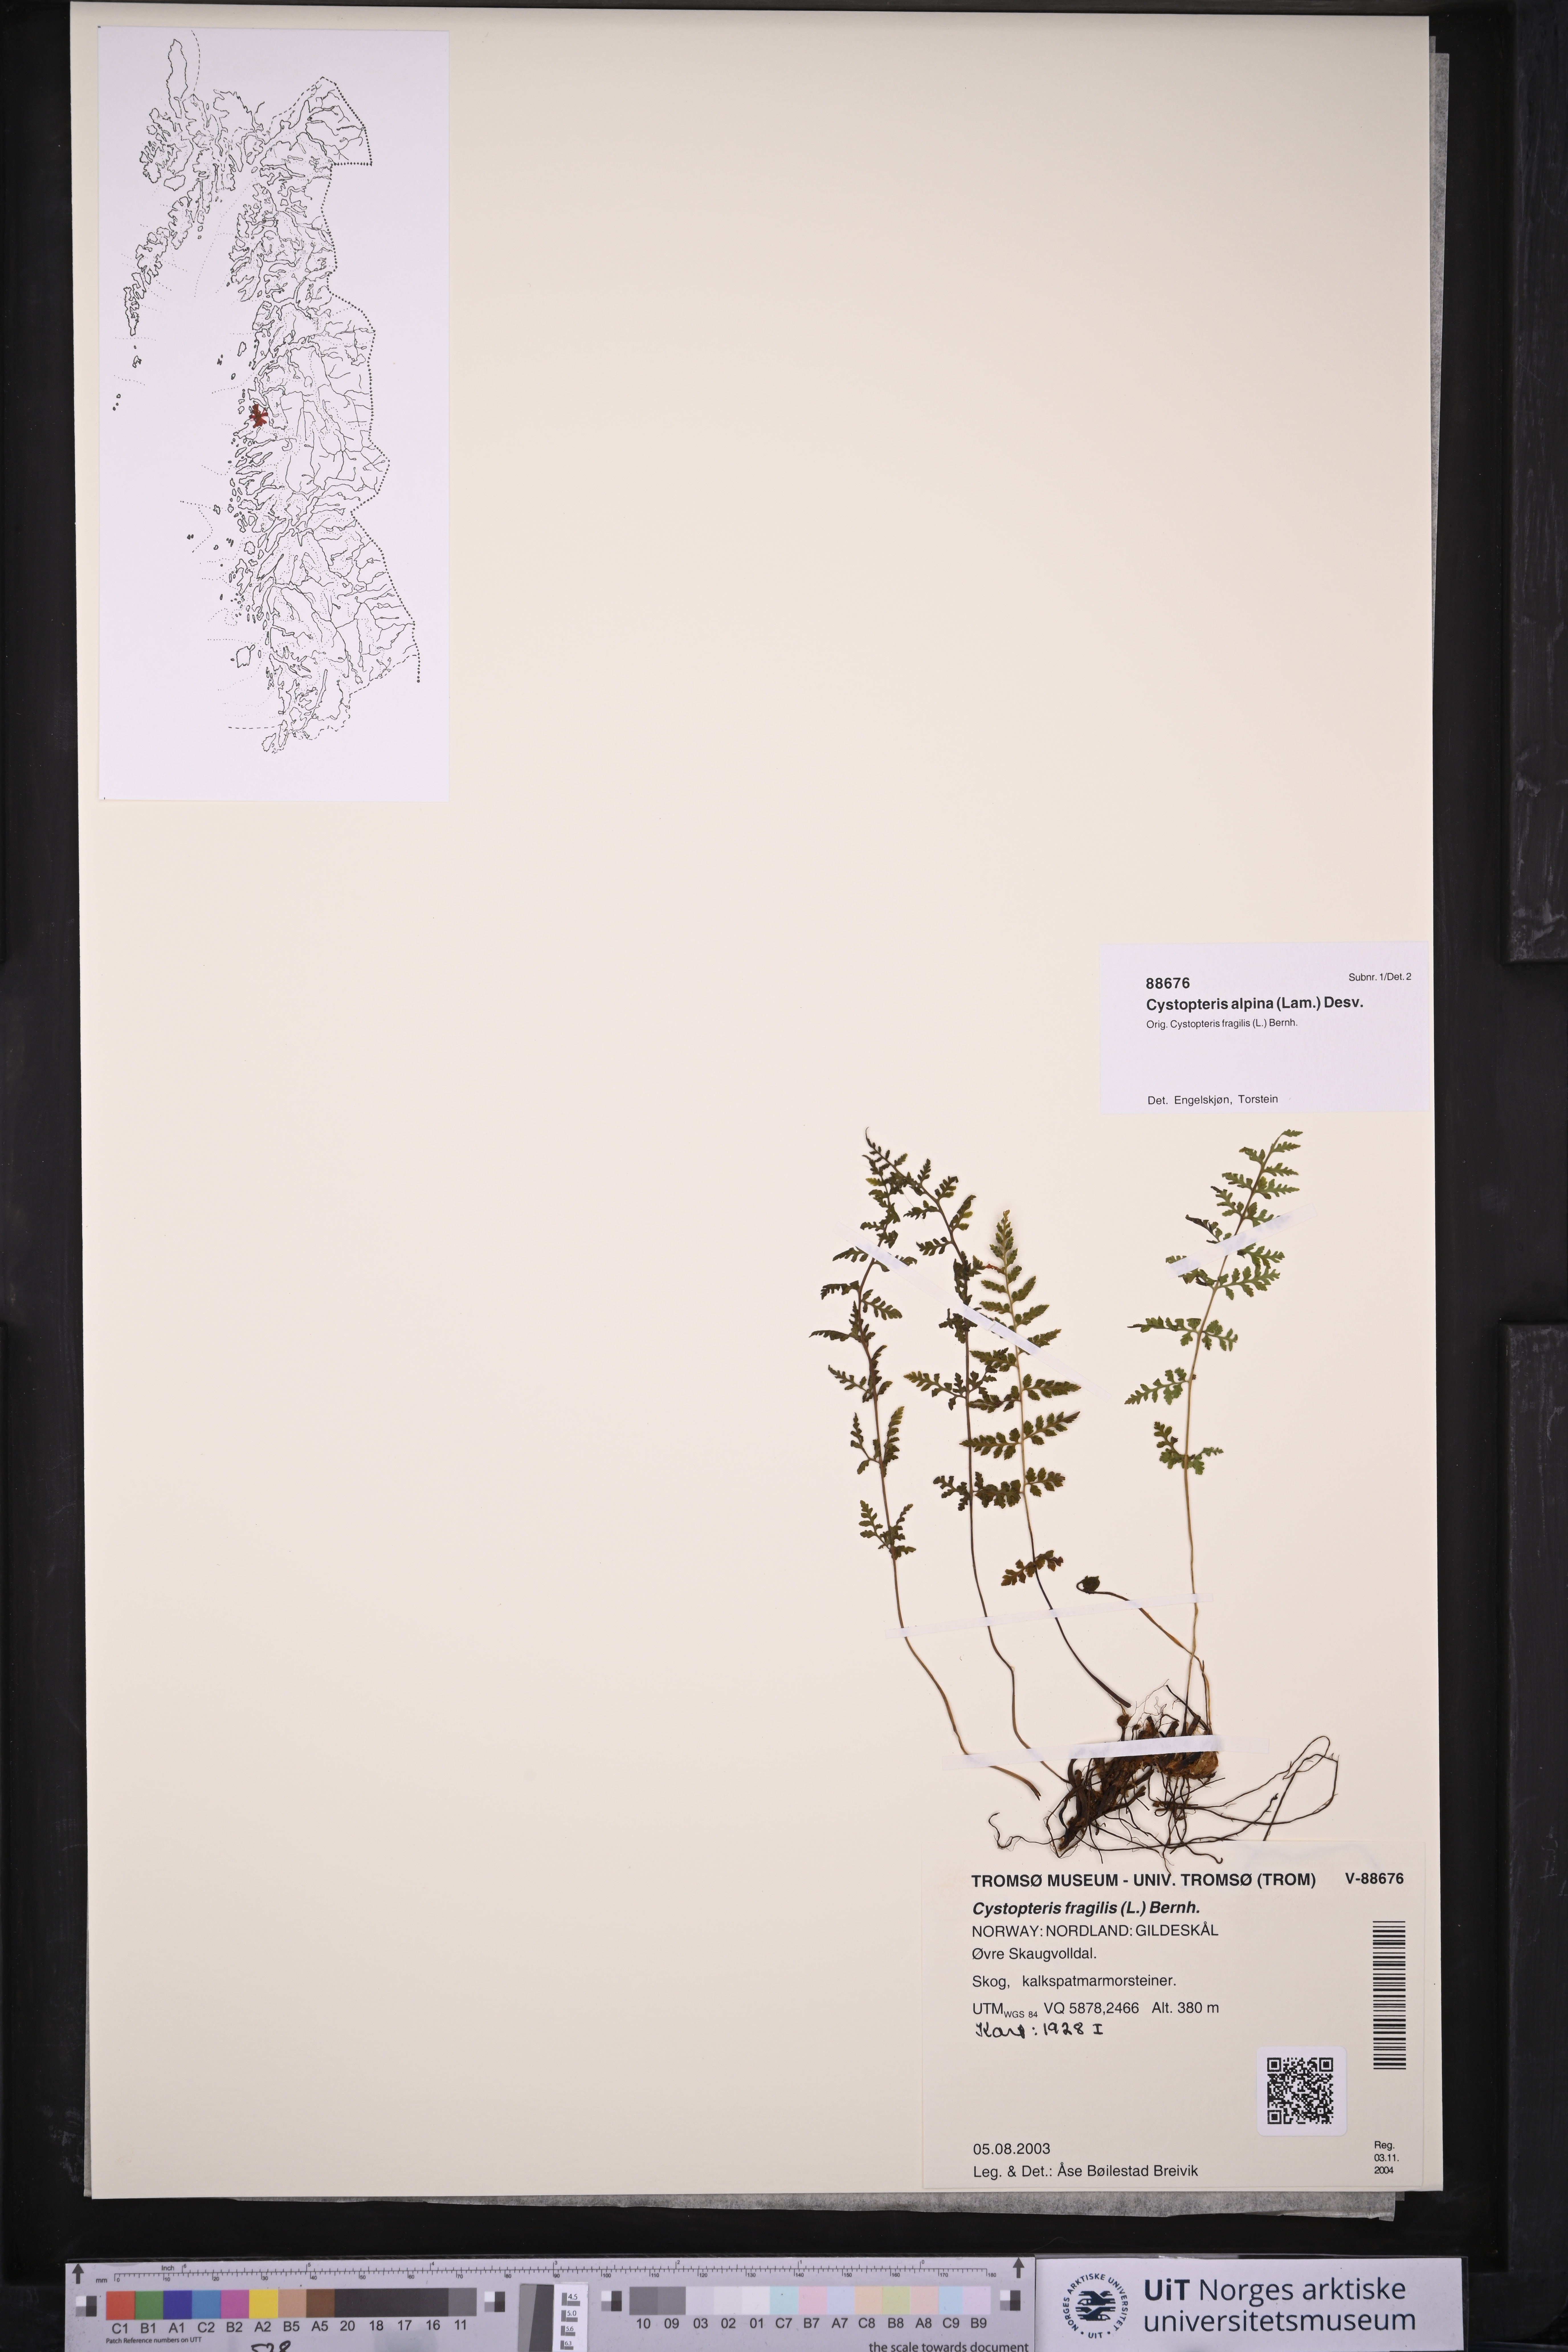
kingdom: Plantae
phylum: Tracheophyta
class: Polypodiopsida
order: Polypodiales
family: Cystopteridaceae
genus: Cystopteris
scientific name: Cystopteris alpina
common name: Alpine bladder-fern
